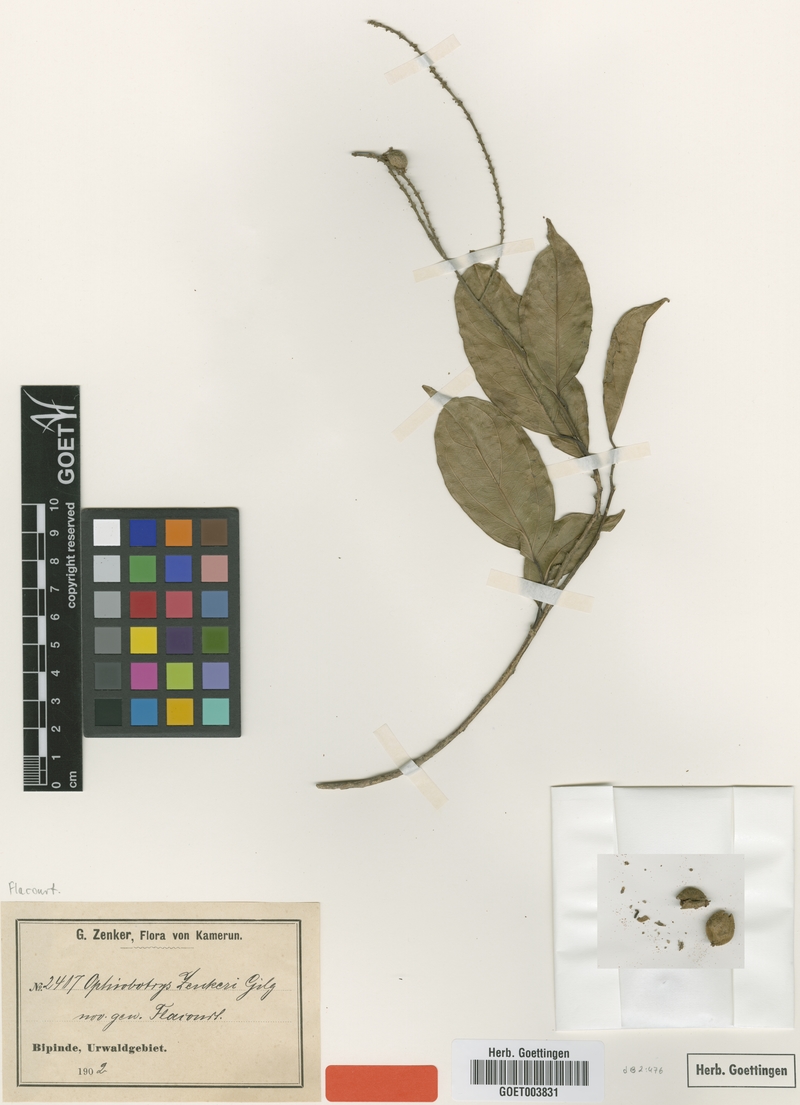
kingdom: Plantae
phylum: Tracheophyta
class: Magnoliopsida
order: Malpighiales
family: Salicaceae
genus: Ophiobotrys
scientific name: Ophiobotrys zenkeri
